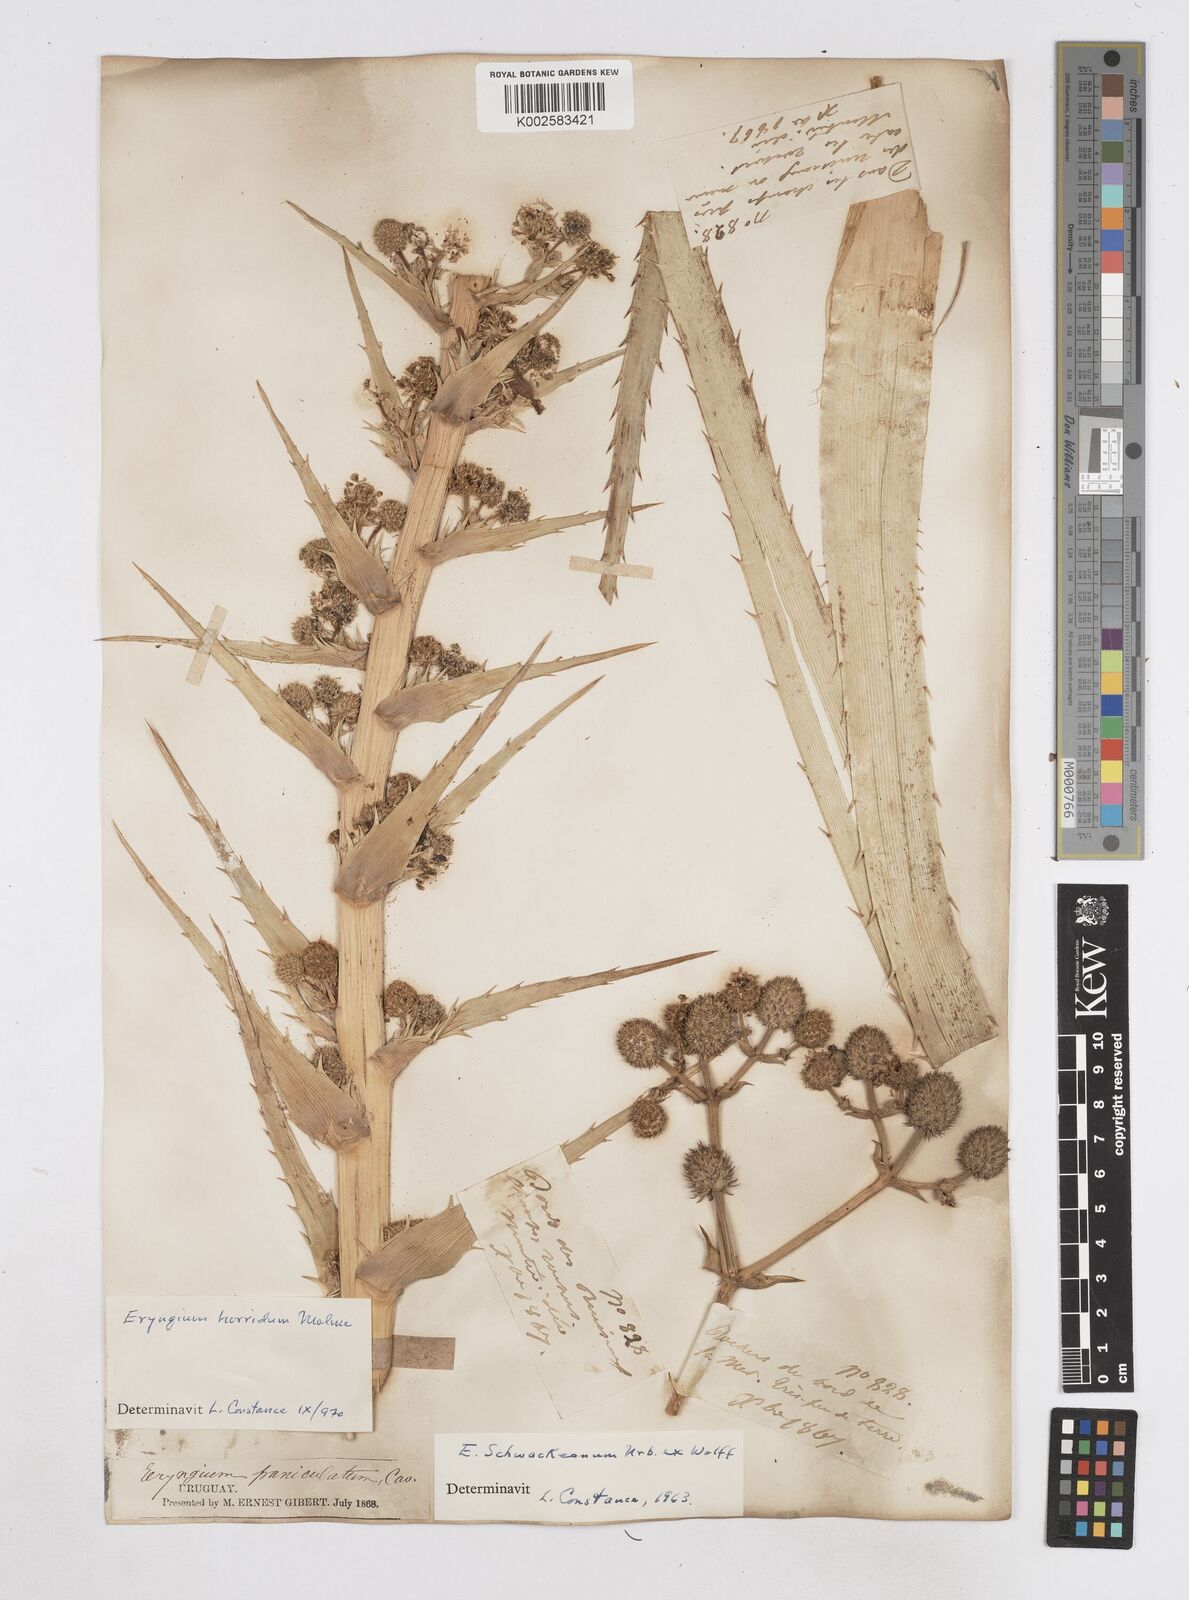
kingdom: Plantae
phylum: Tracheophyta
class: Magnoliopsida
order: Apiales
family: Apiaceae
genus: Eryngium
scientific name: Eryngium humboldtii
